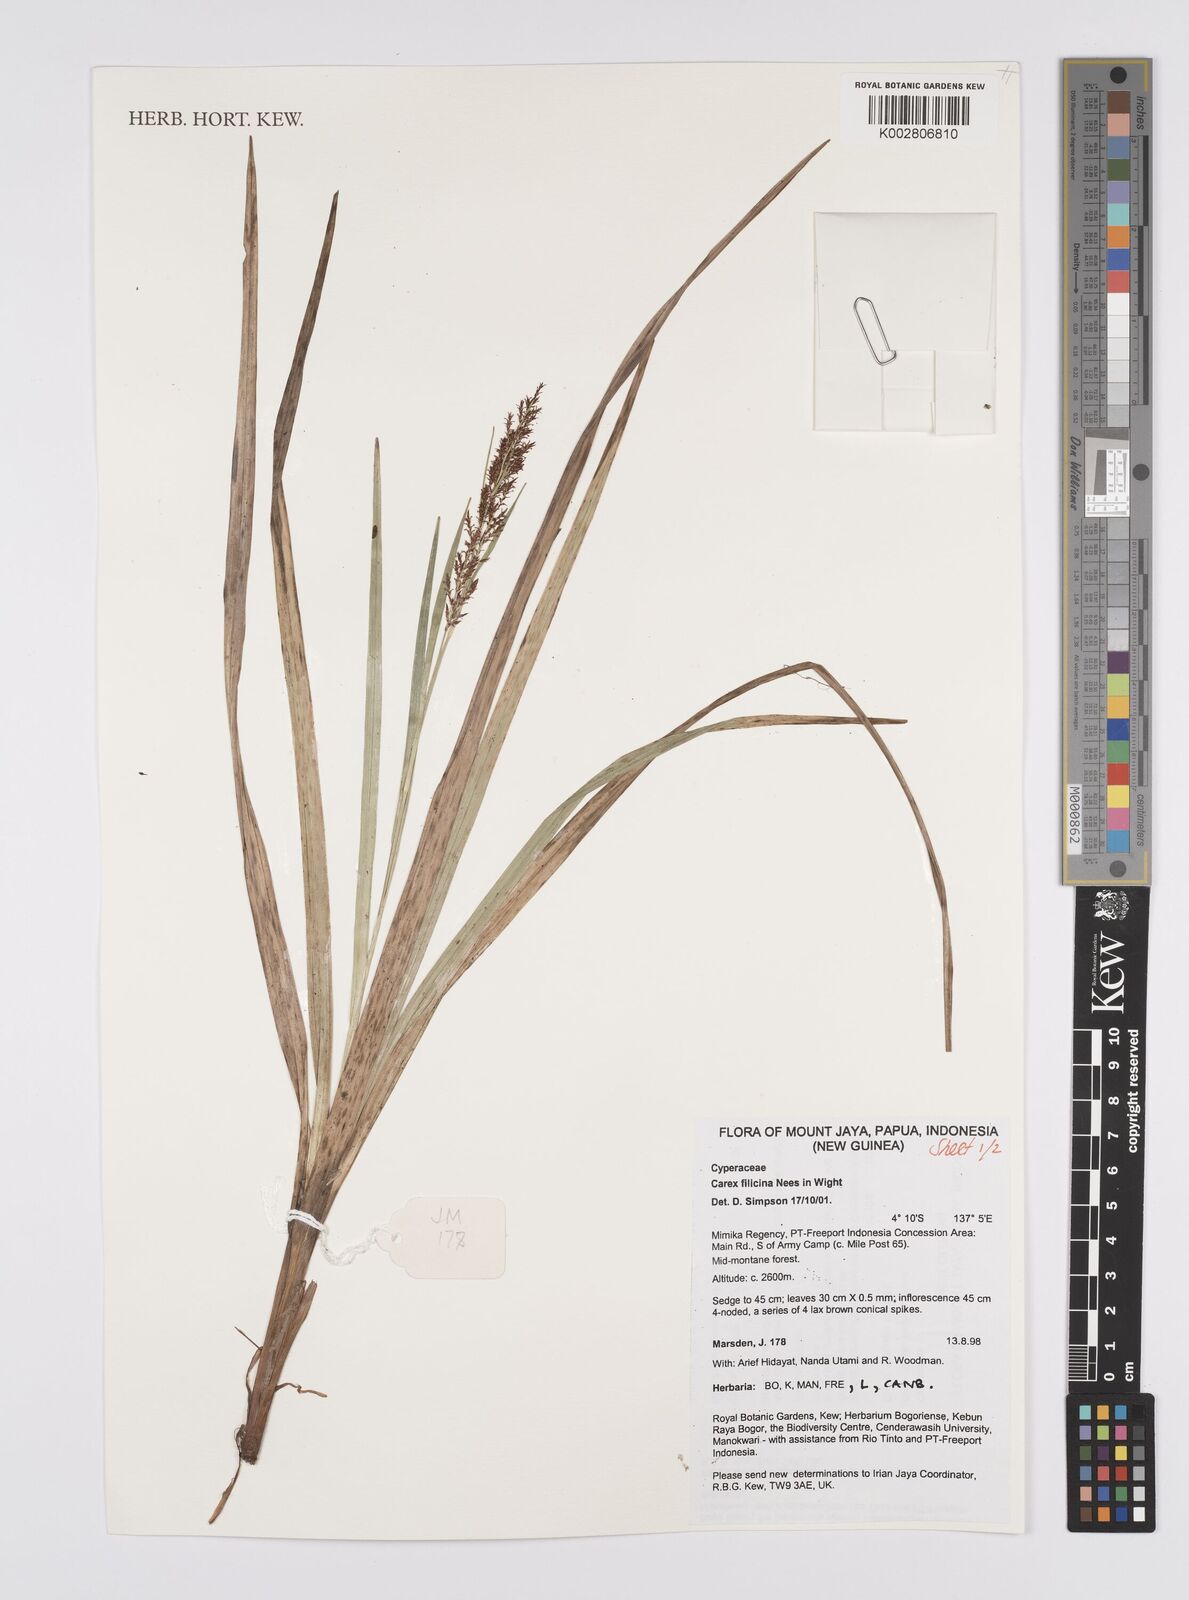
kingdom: Plantae
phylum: Tracheophyta
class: Liliopsida
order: Poales
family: Cyperaceae
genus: Carex
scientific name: Carex filicina
